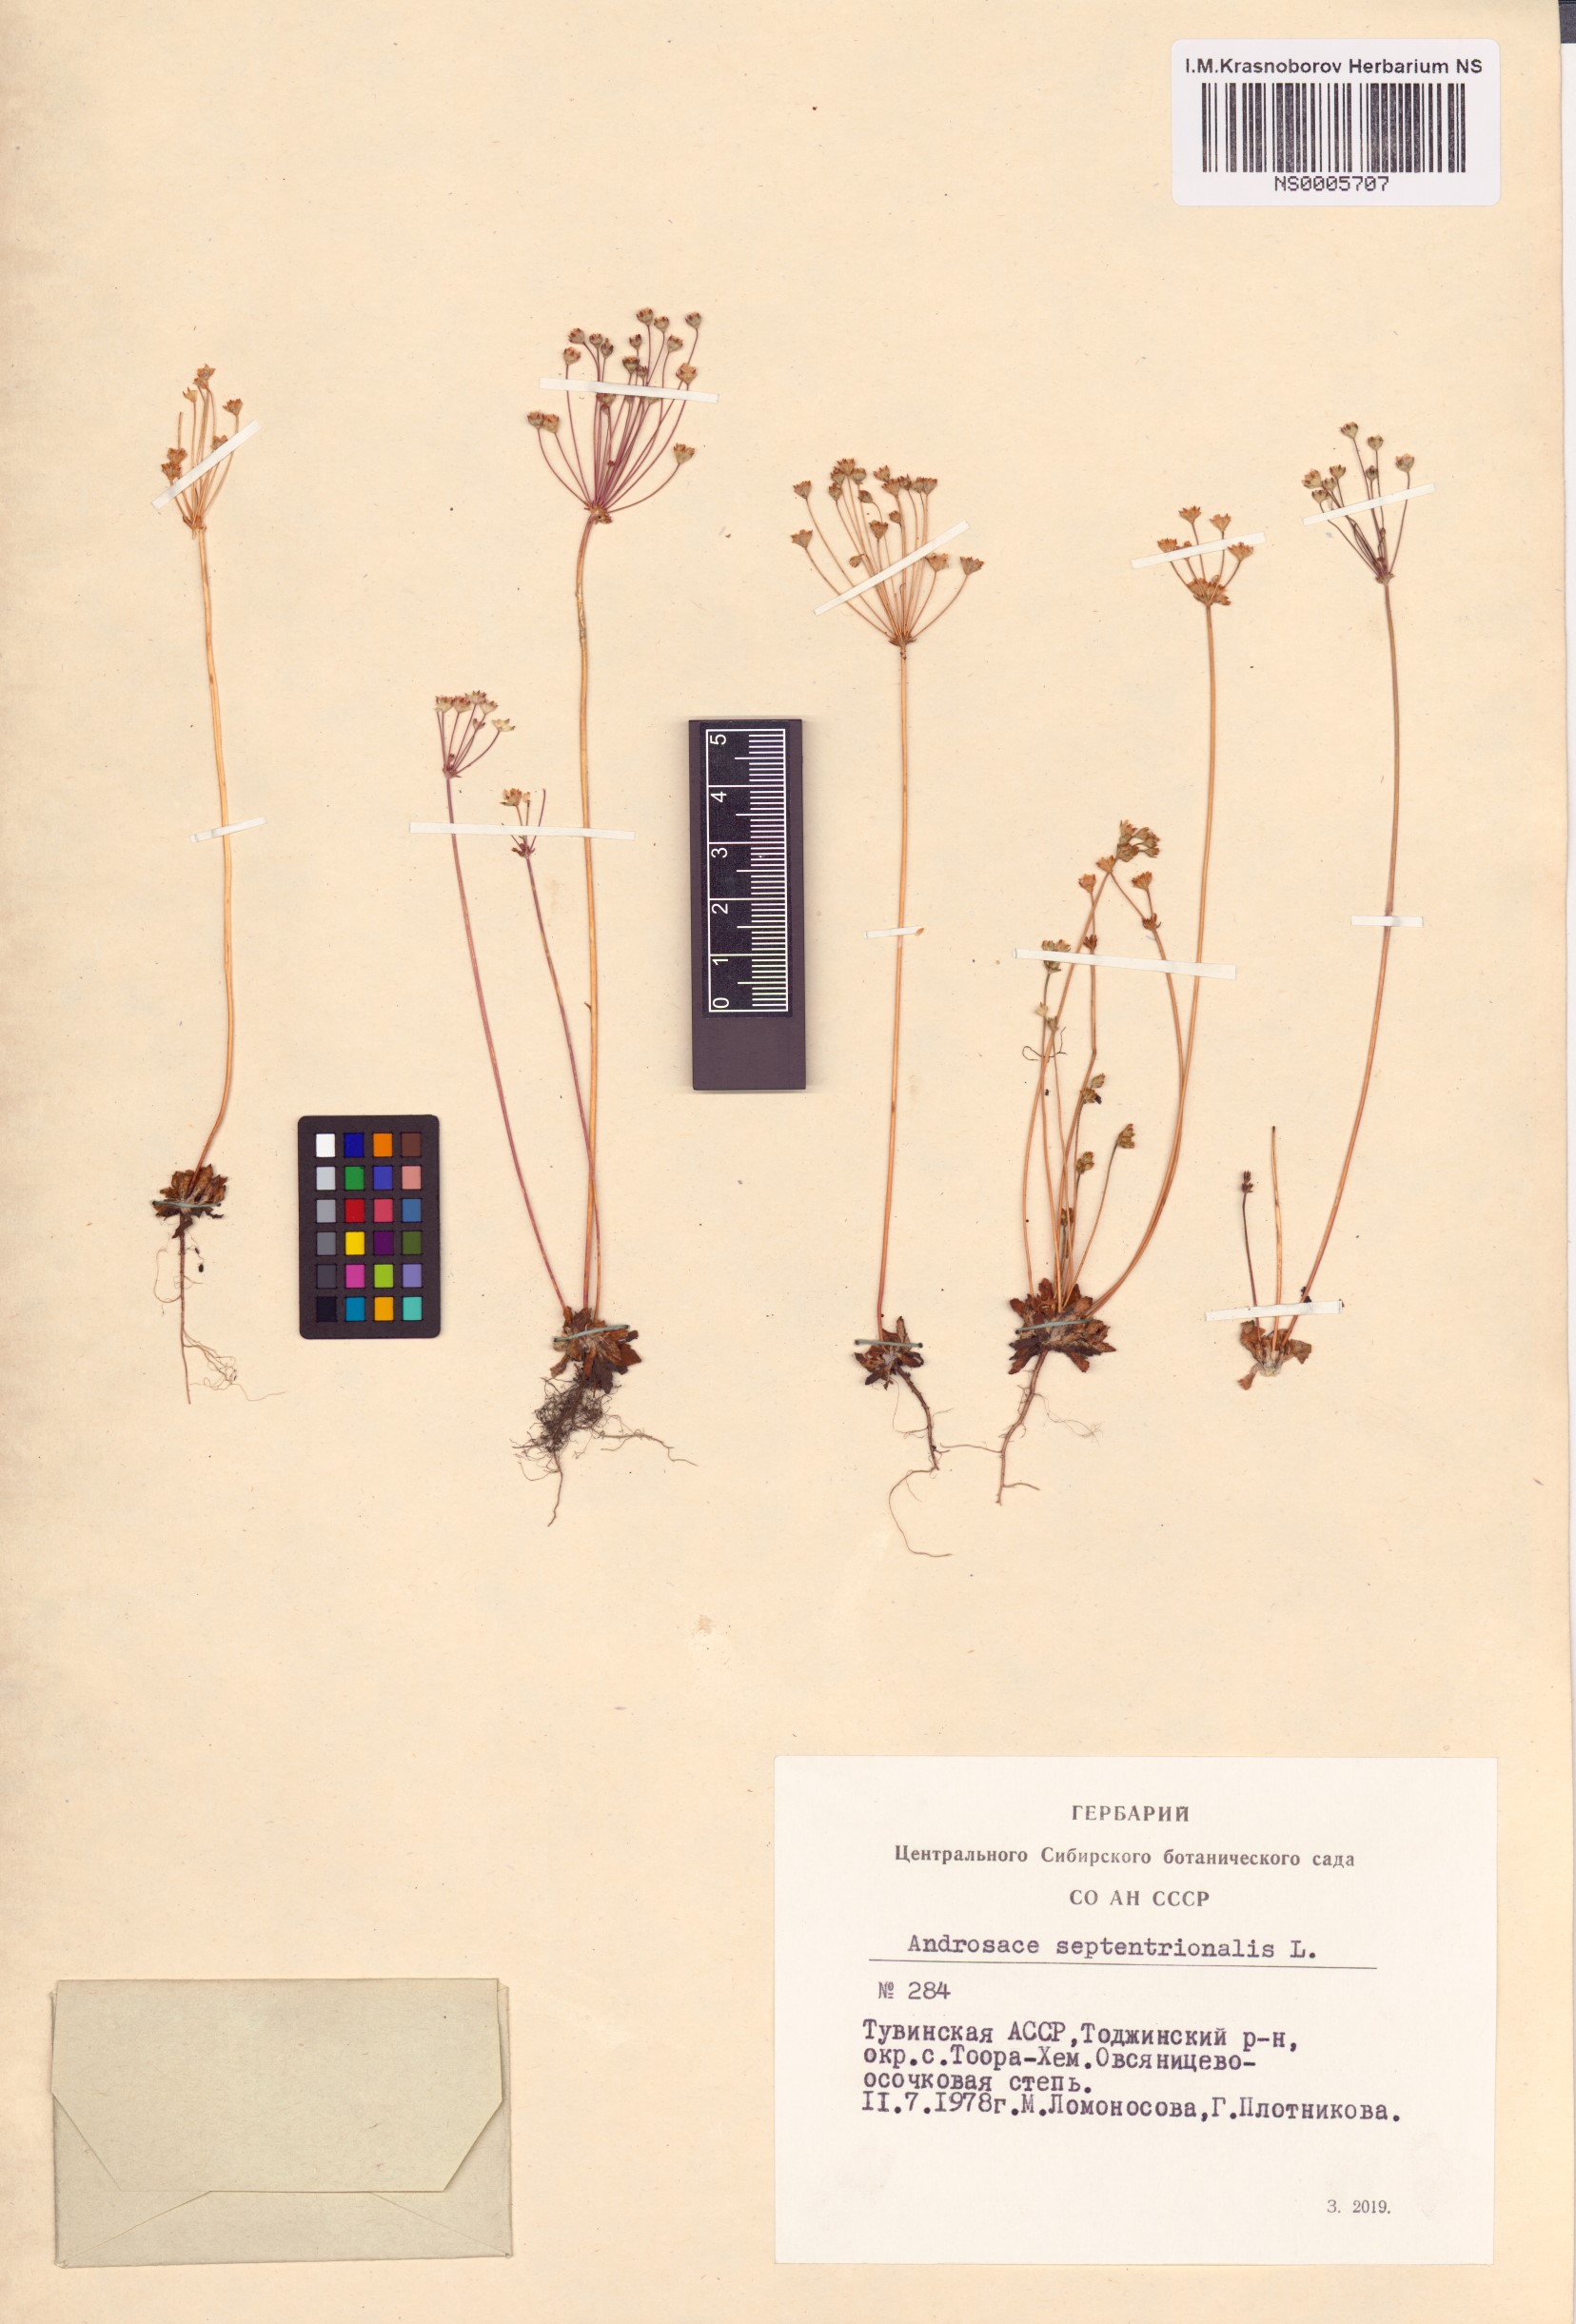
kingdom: Plantae
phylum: Tracheophyta
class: Magnoliopsida
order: Ericales
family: Primulaceae
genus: Androsace
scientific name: Androsace septentrionalis
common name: Hairy northern fairy-candelabra
